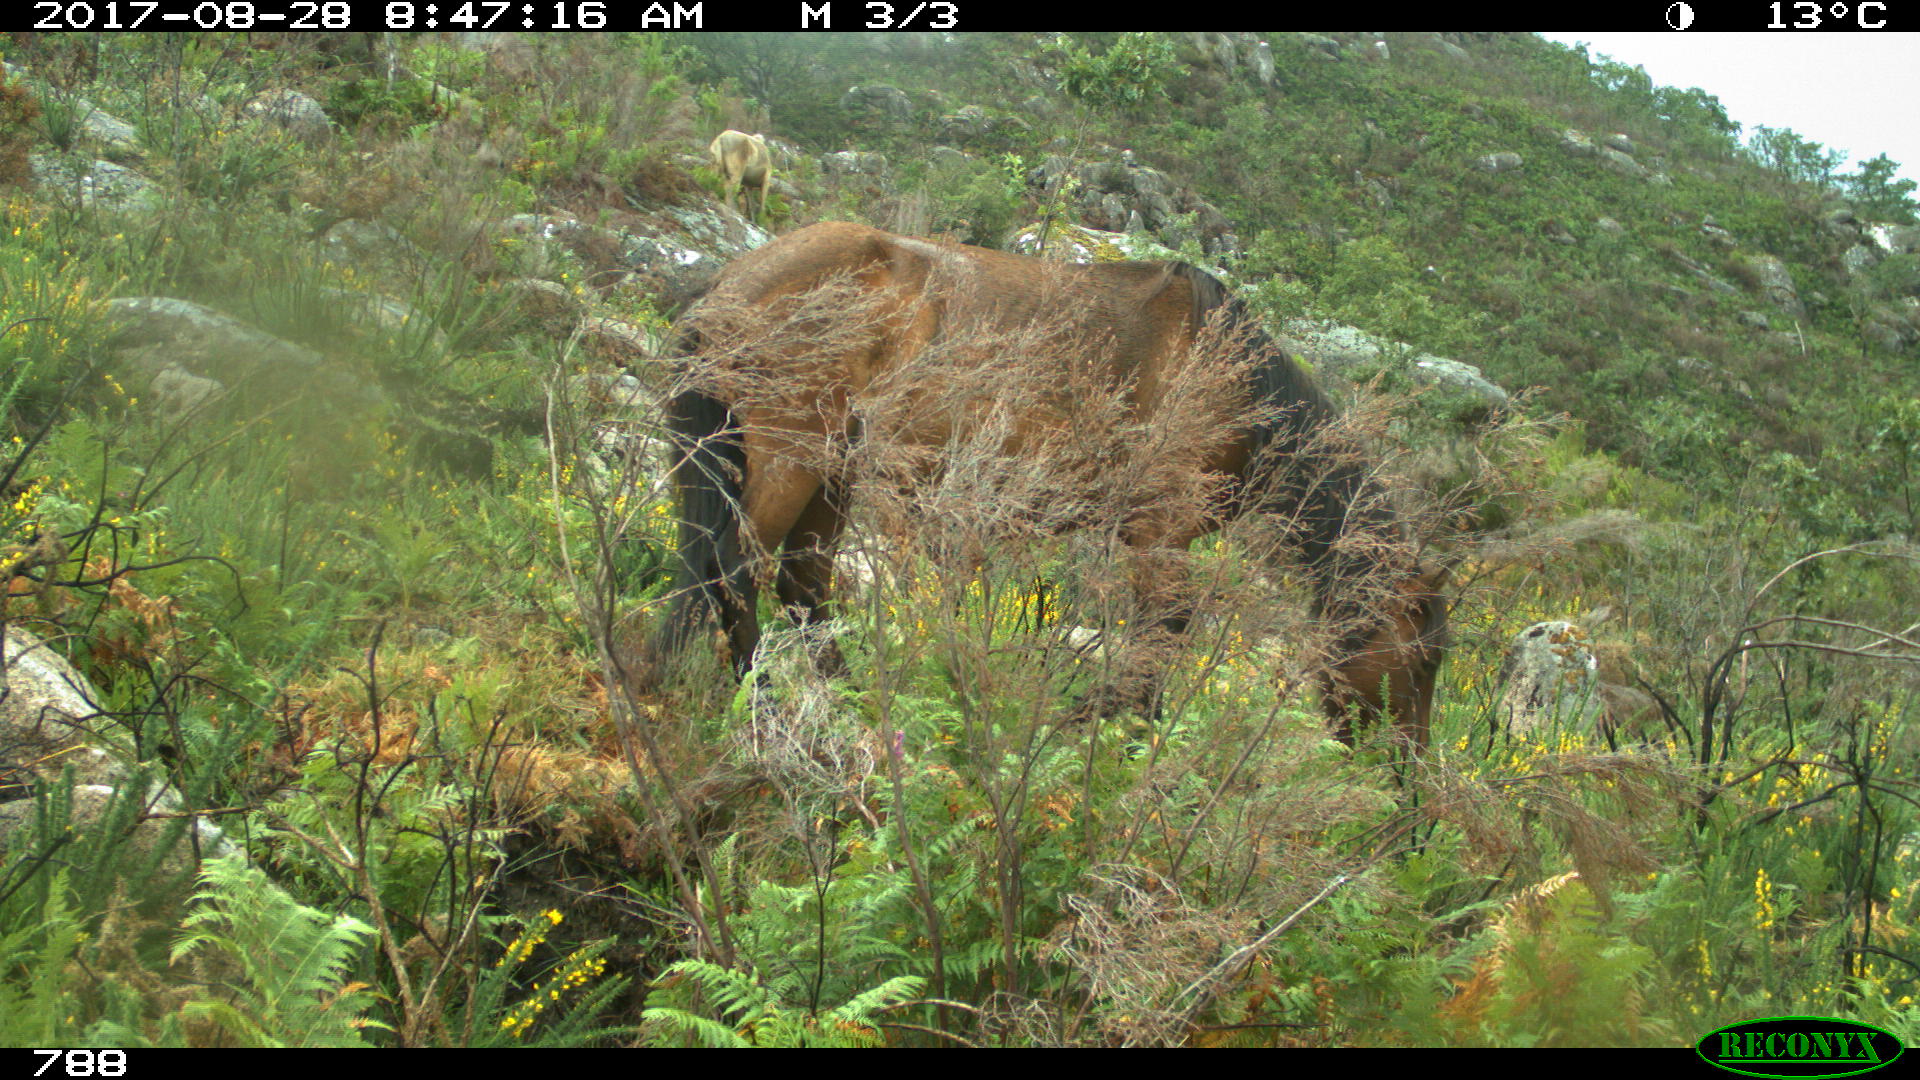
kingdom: Animalia
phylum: Chordata
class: Mammalia
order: Perissodactyla
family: Equidae
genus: Equus
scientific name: Equus caballus
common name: Horse
